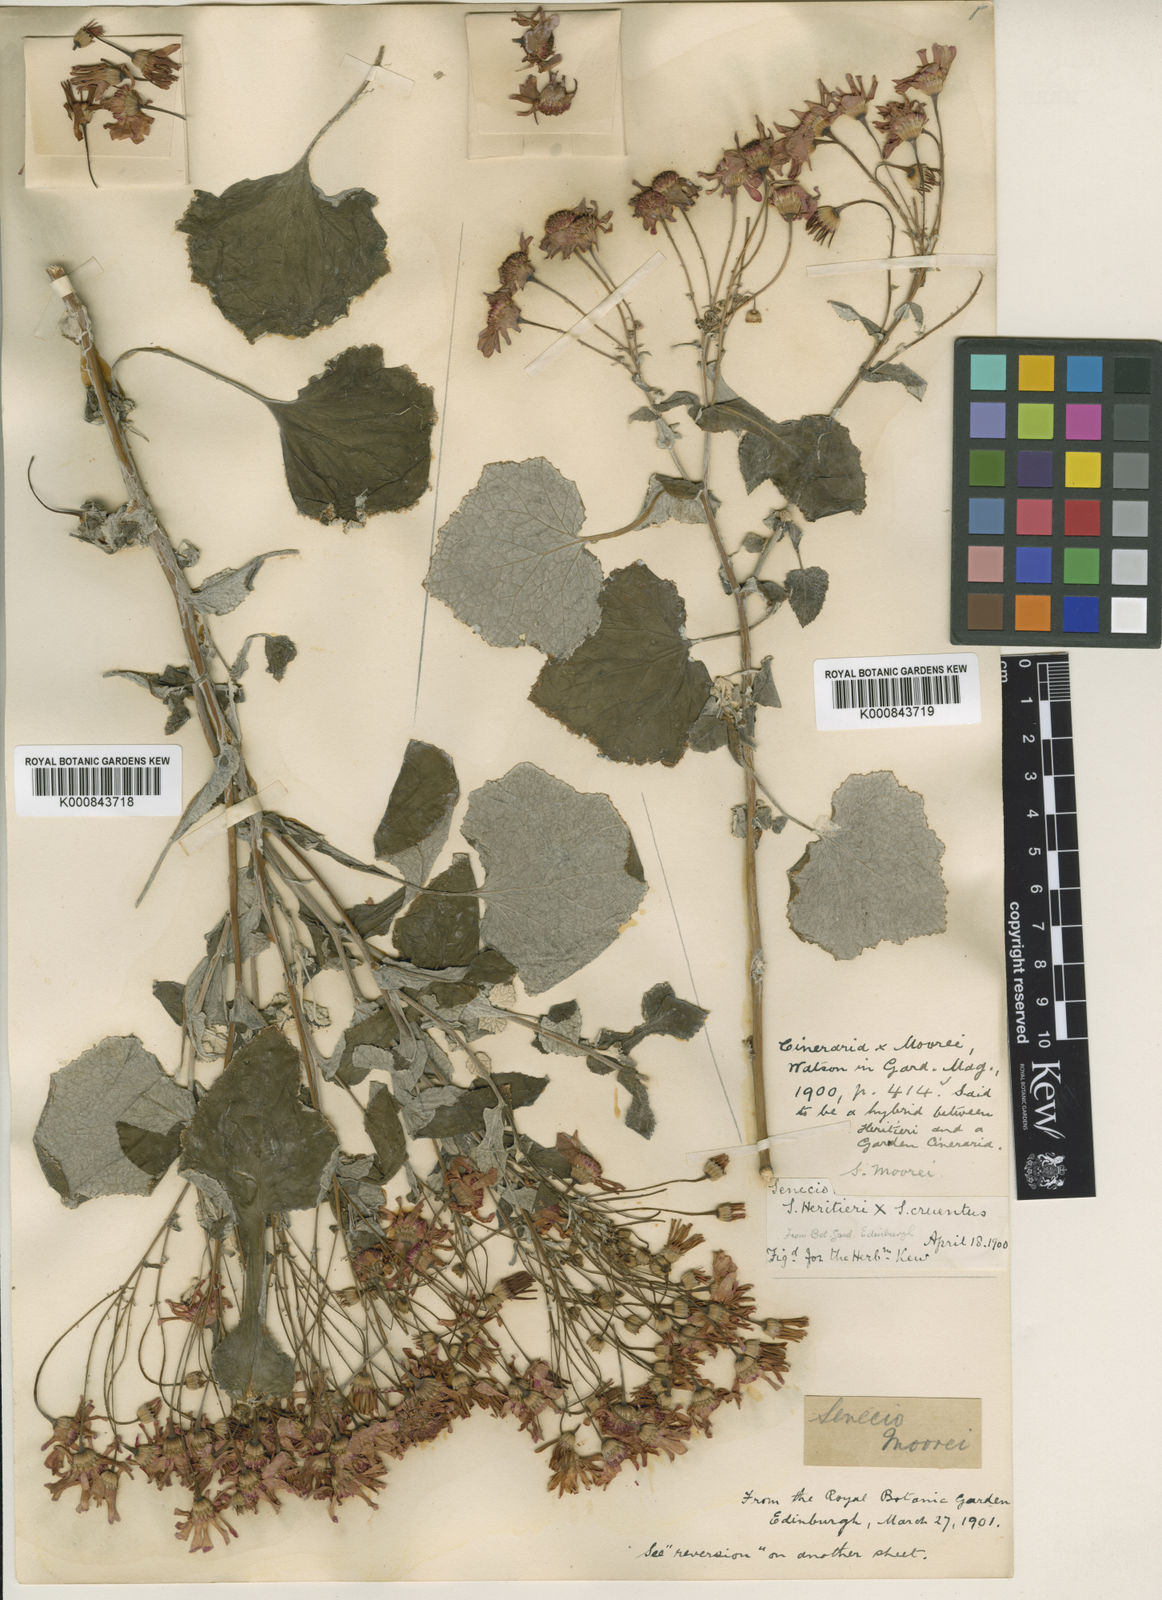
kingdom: Plantae
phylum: Tracheophyta
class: Magnoliopsida
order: Asterales
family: Asteraceae
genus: Senecio
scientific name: Senecio moorei
